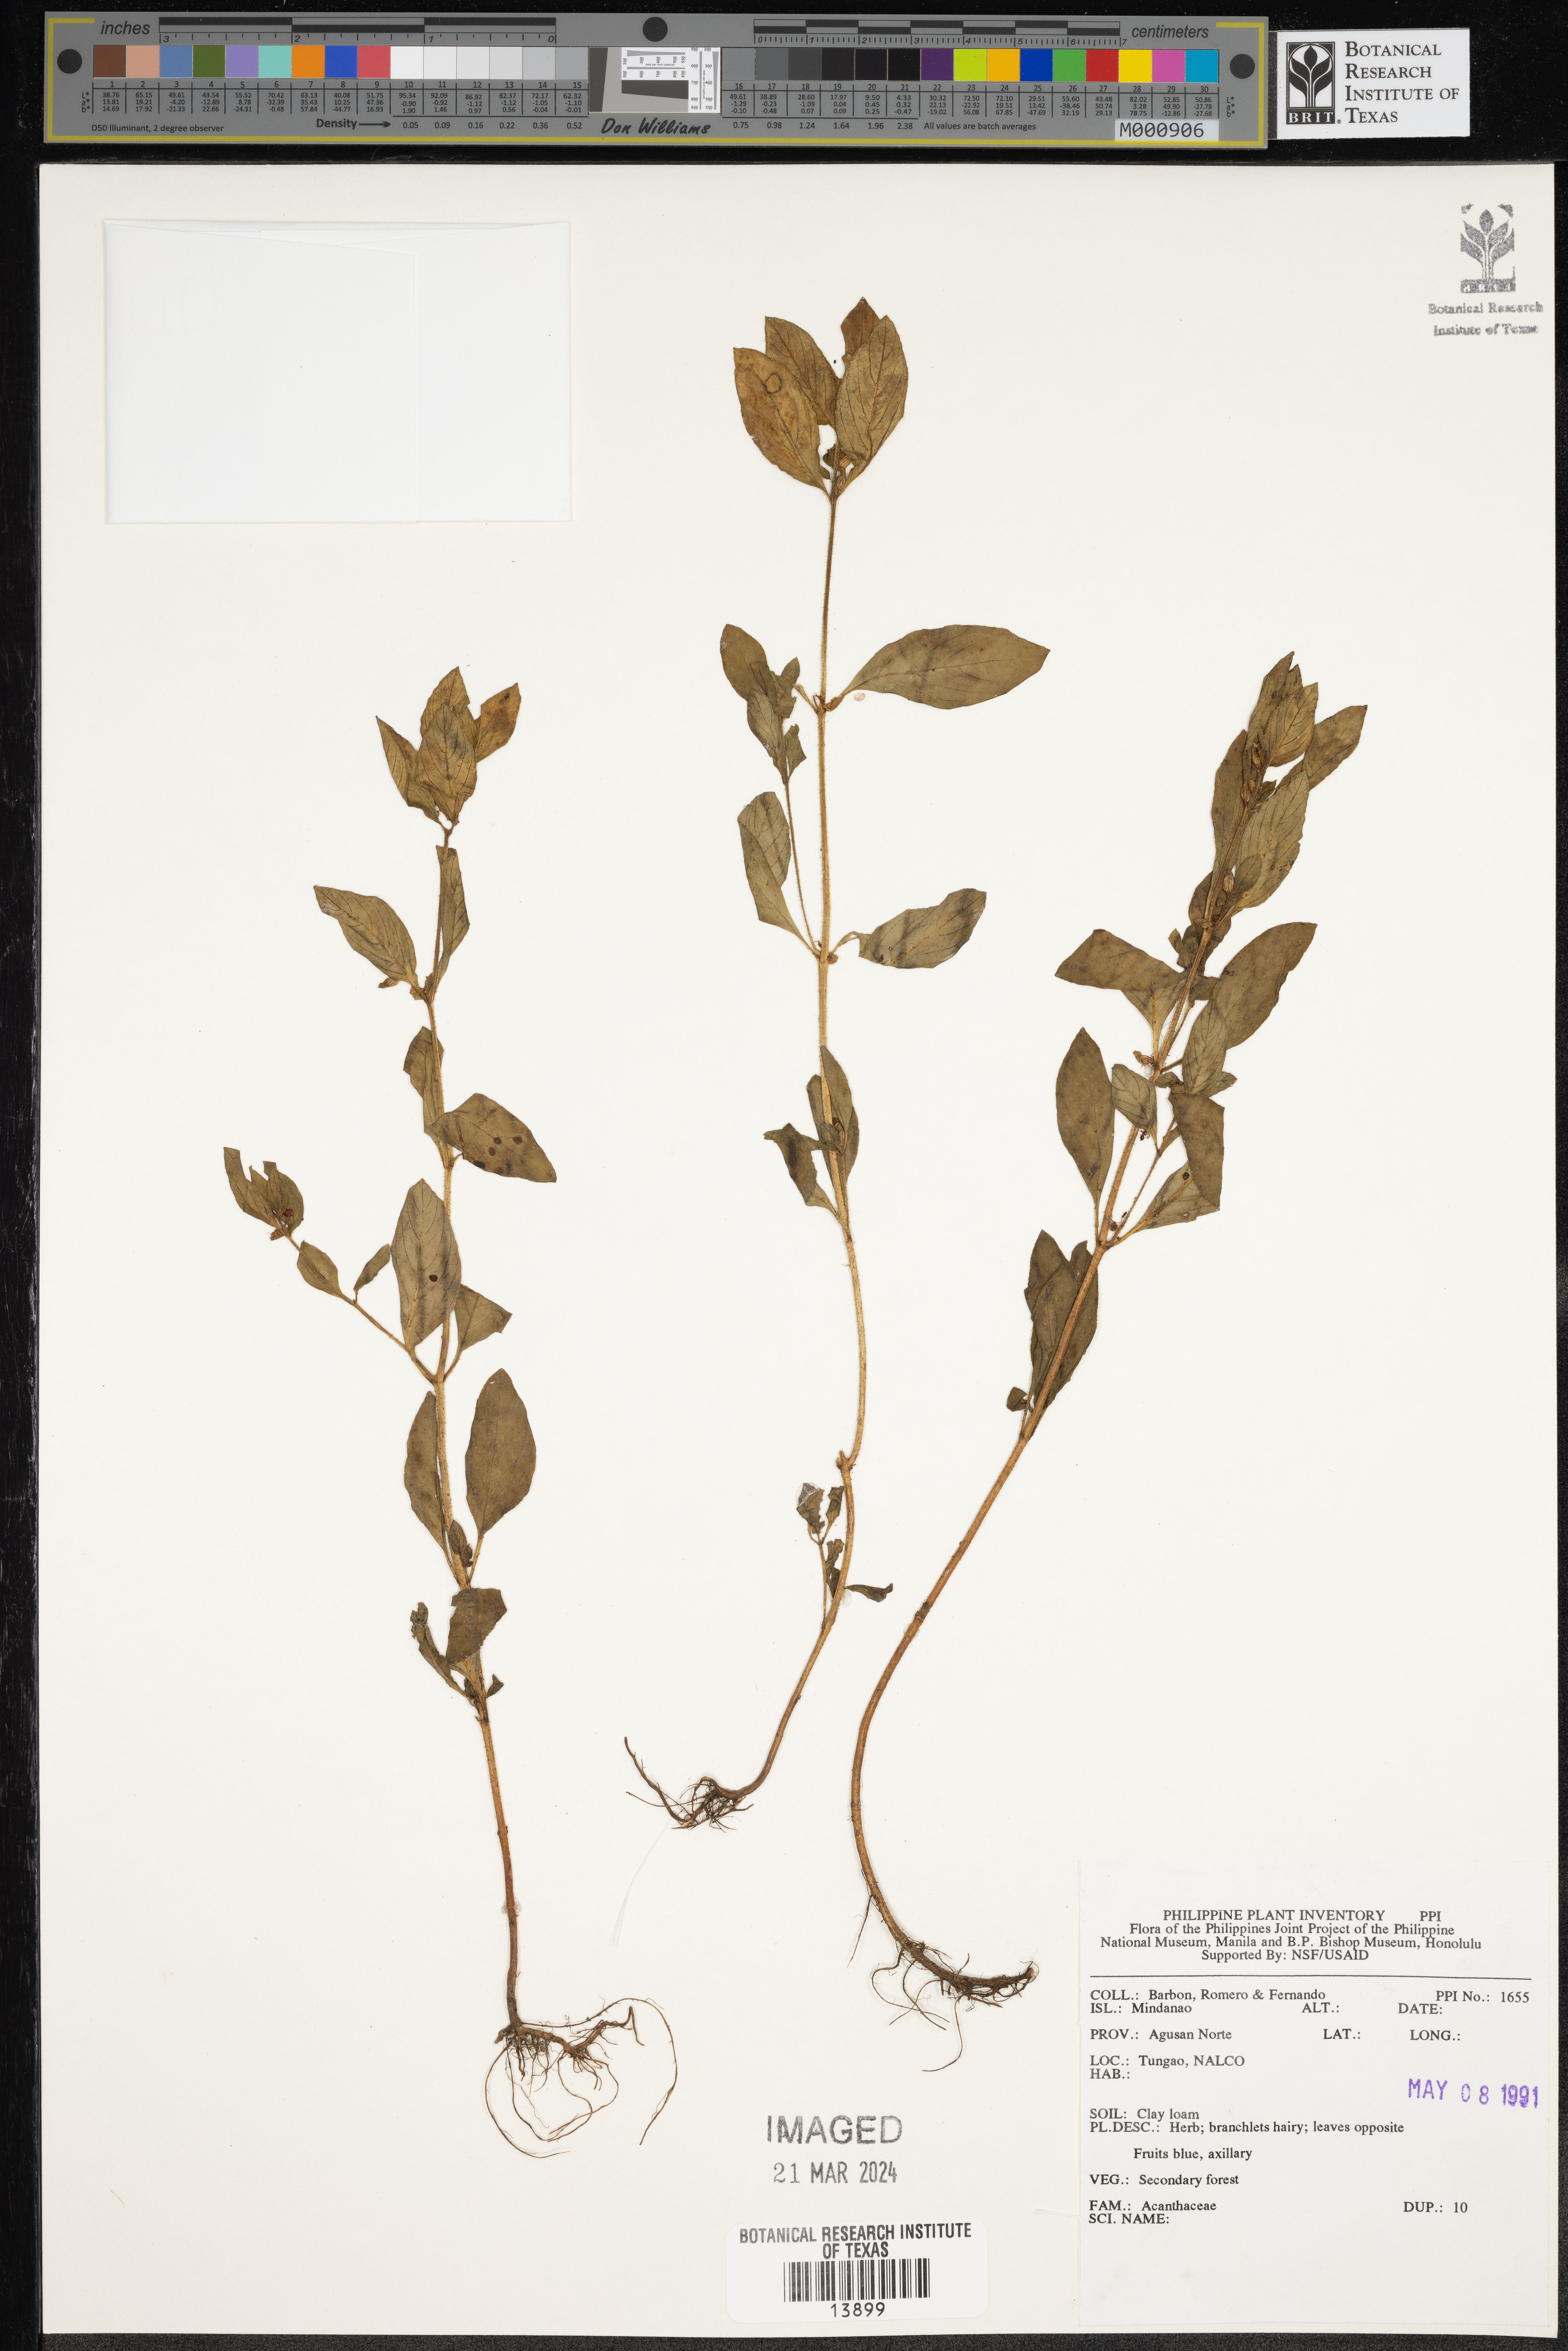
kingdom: Plantae
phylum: Tracheophyta
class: Magnoliopsida
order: Lamiales
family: Acanthaceae
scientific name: Acanthaceae
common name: Acanthaceae
